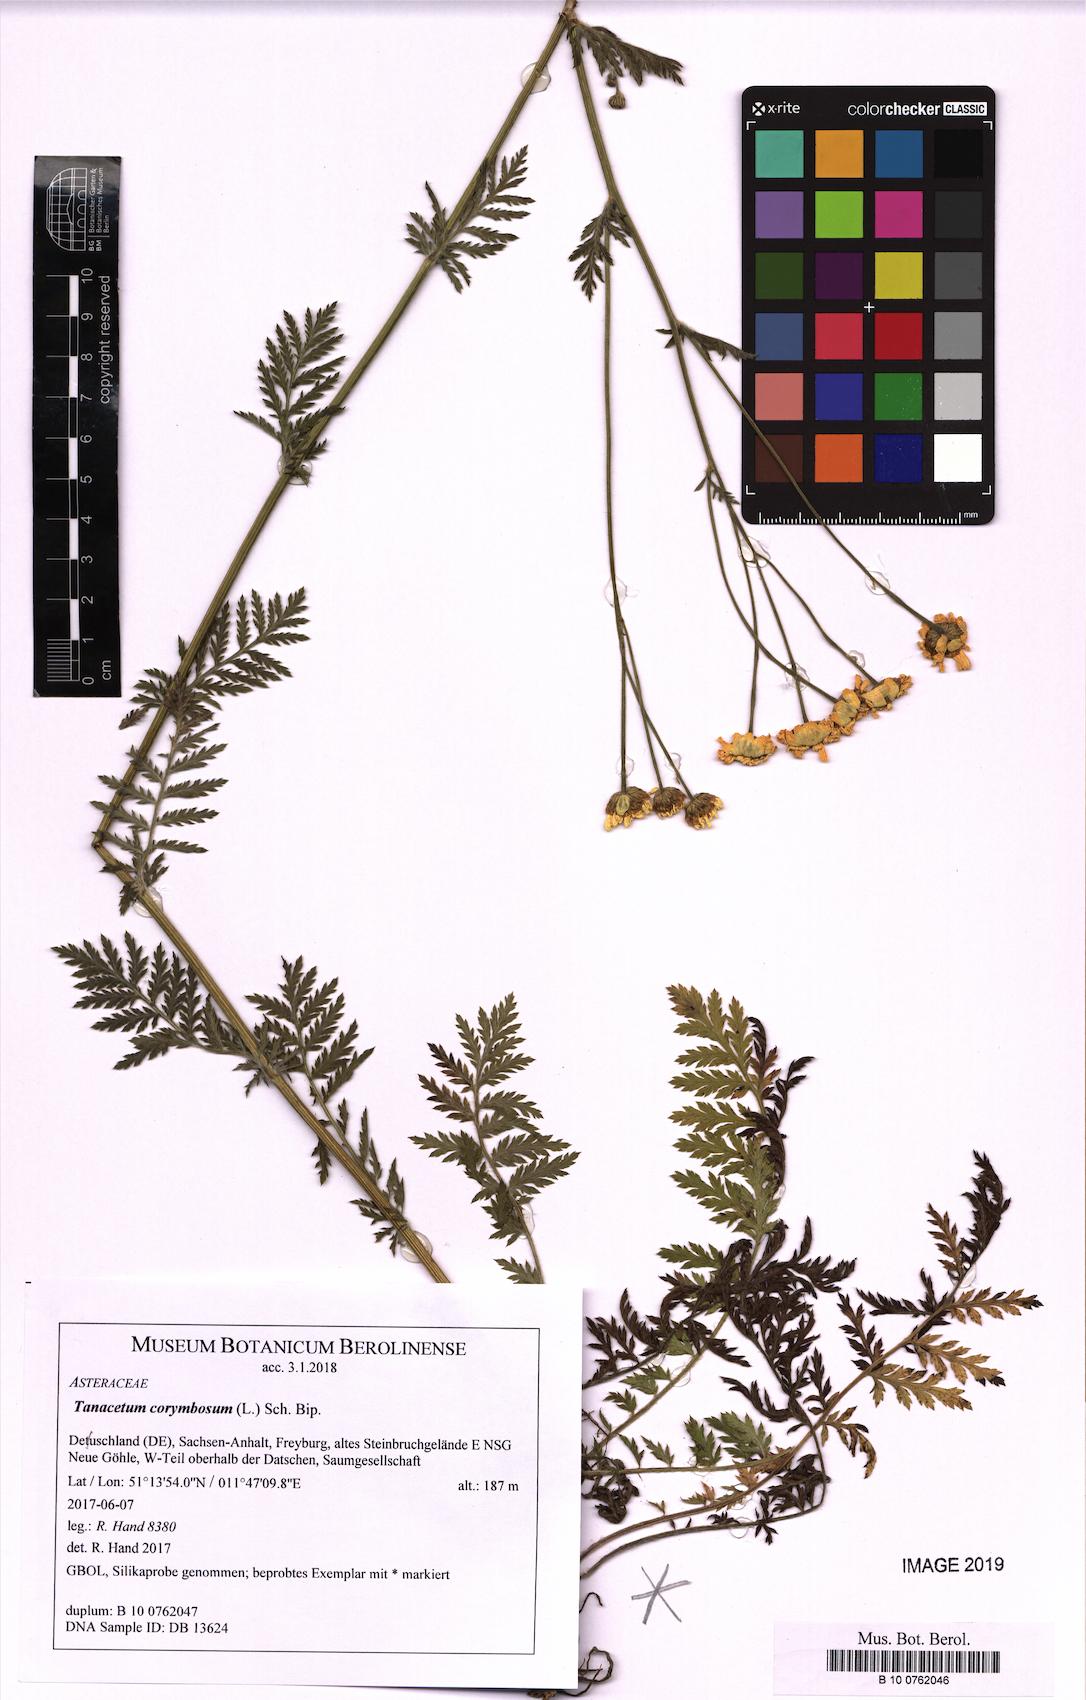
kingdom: Plantae
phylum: Tracheophyta
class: Magnoliopsida
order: Asterales
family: Asteraceae
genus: Tanacetum
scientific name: Tanacetum corymbosum
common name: Scentless feverfew
